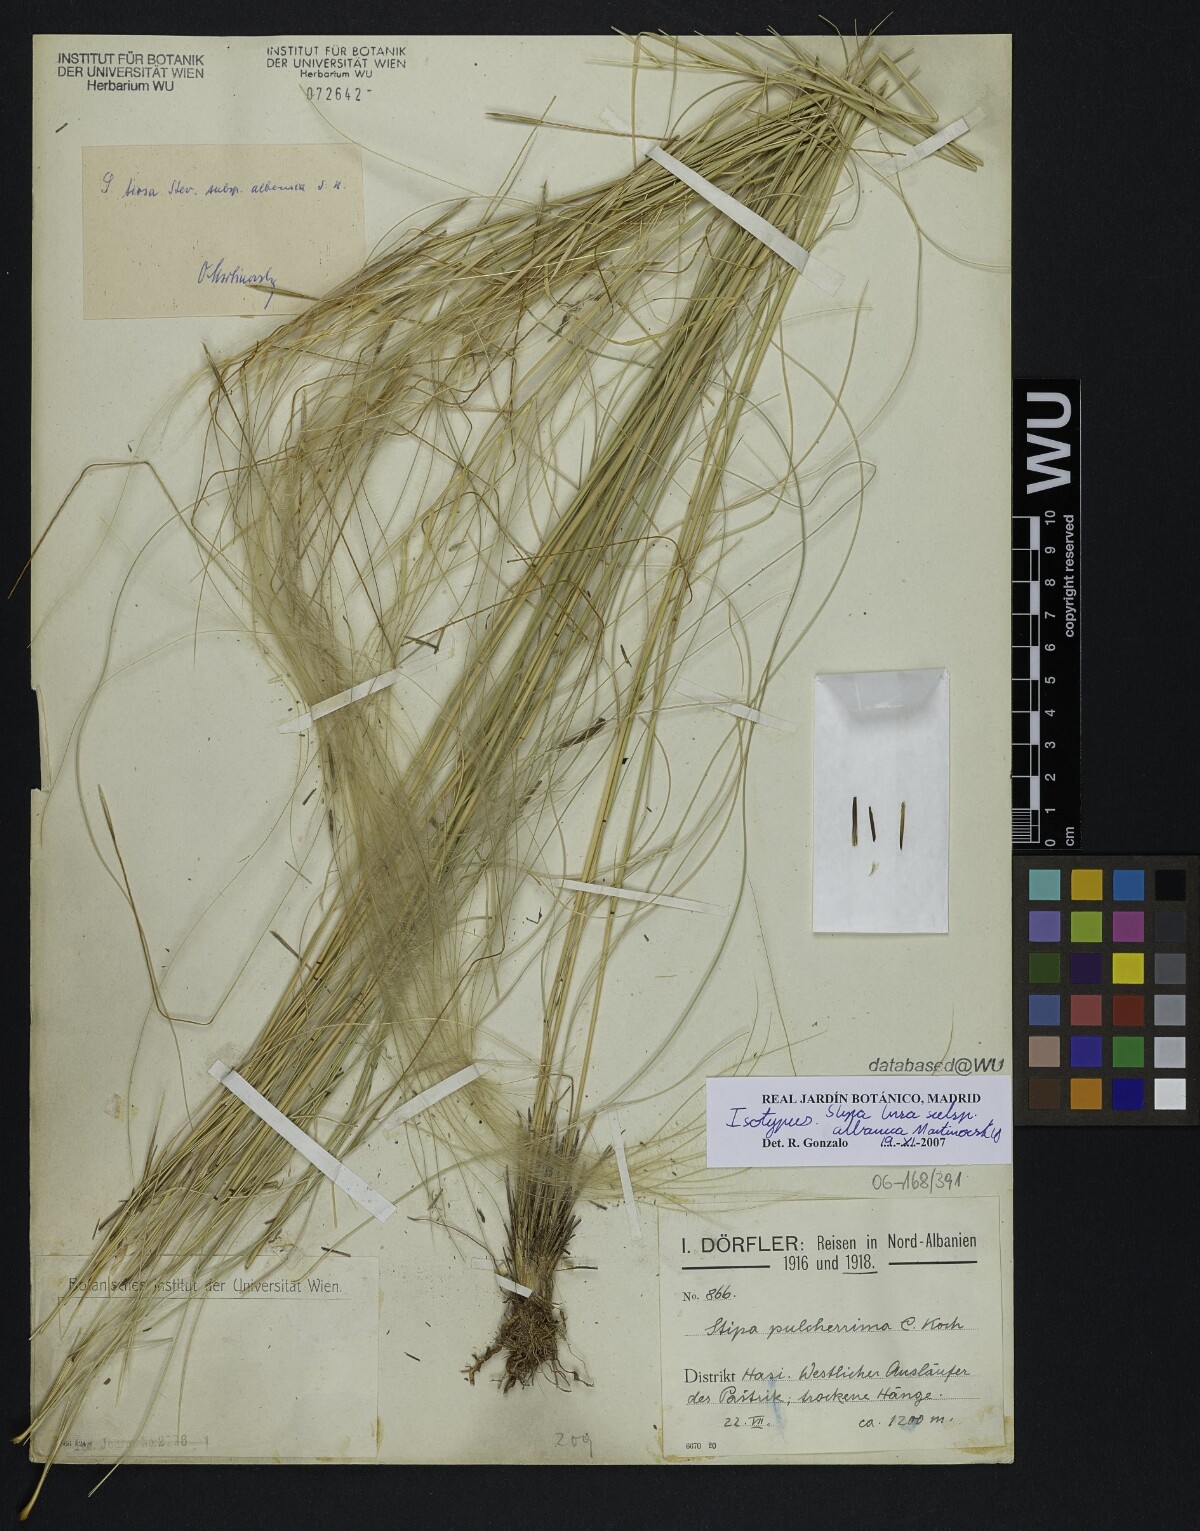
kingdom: Plantae
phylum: Tracheophyta
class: Liliopsida
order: Poales
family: Poaceae
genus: Stipa
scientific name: Stipa tirsa
